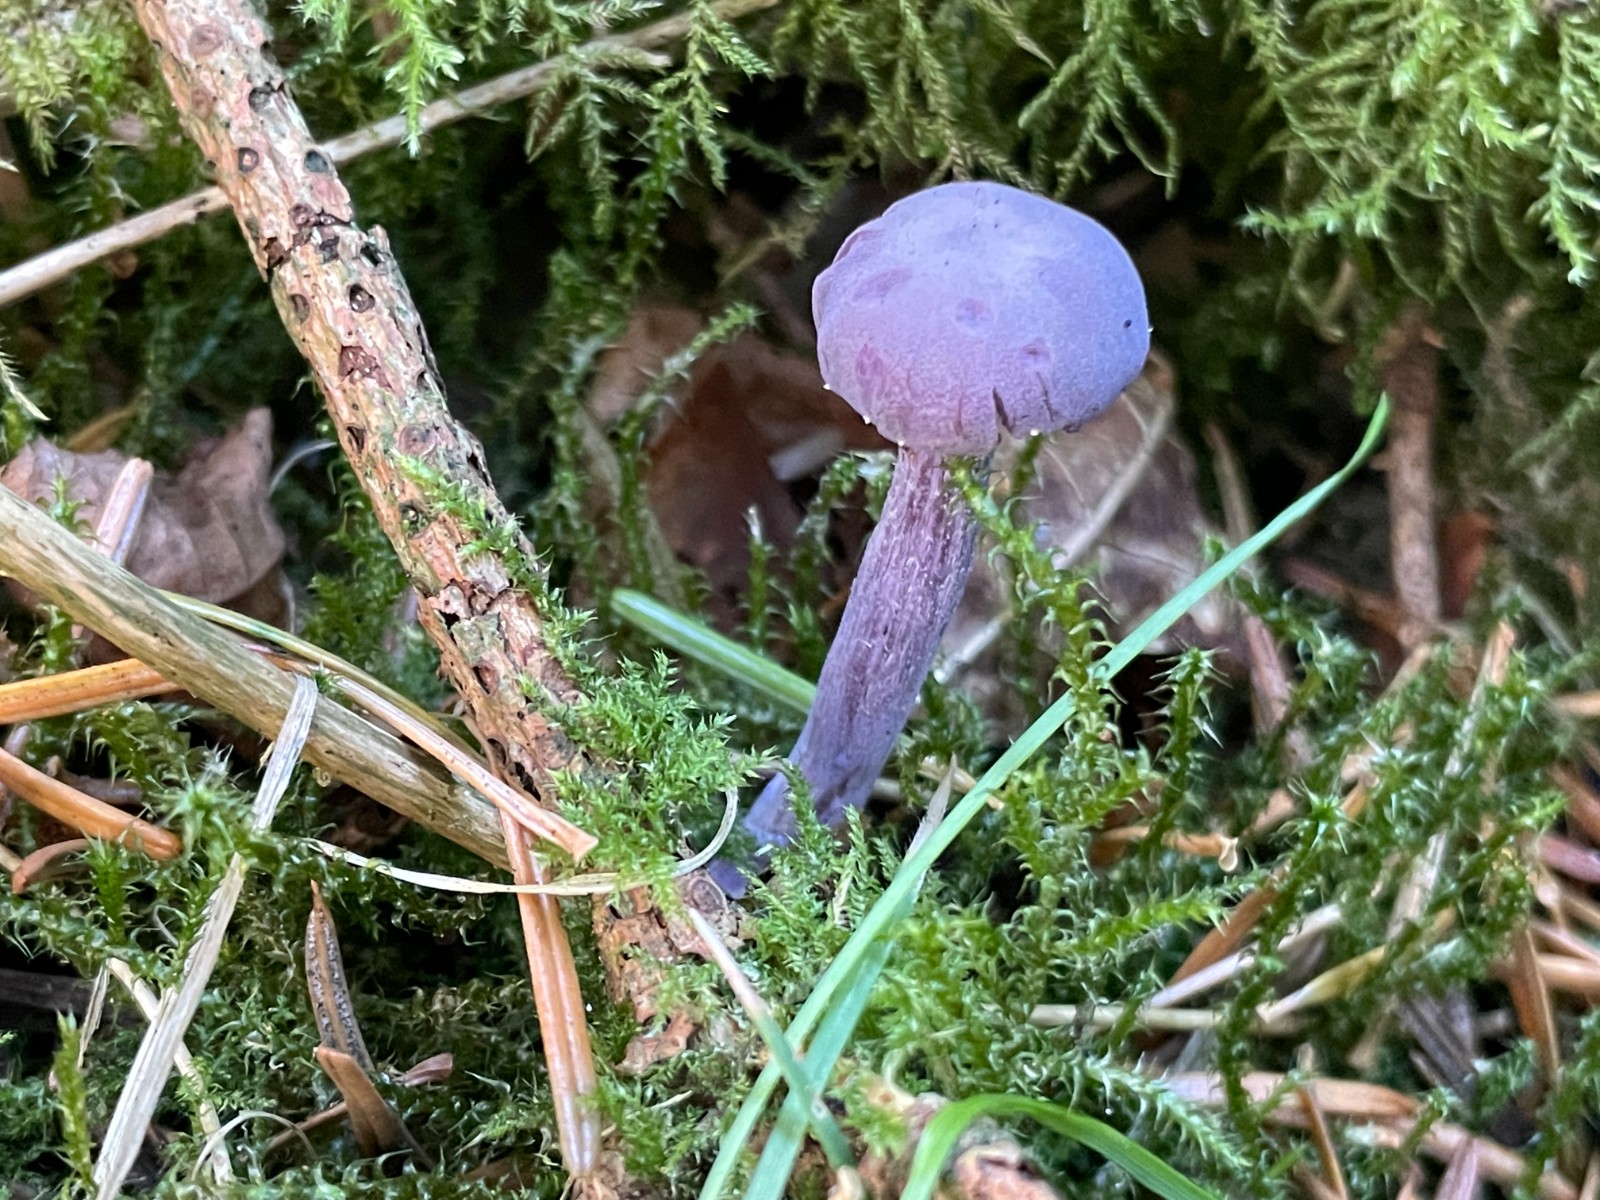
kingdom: Fungi
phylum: Basidiomycota
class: Agaricomycetes
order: Agaricales
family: Hydnangiaceae
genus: Laccaria
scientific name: Laccaria amethystina
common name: violet ametysthat
